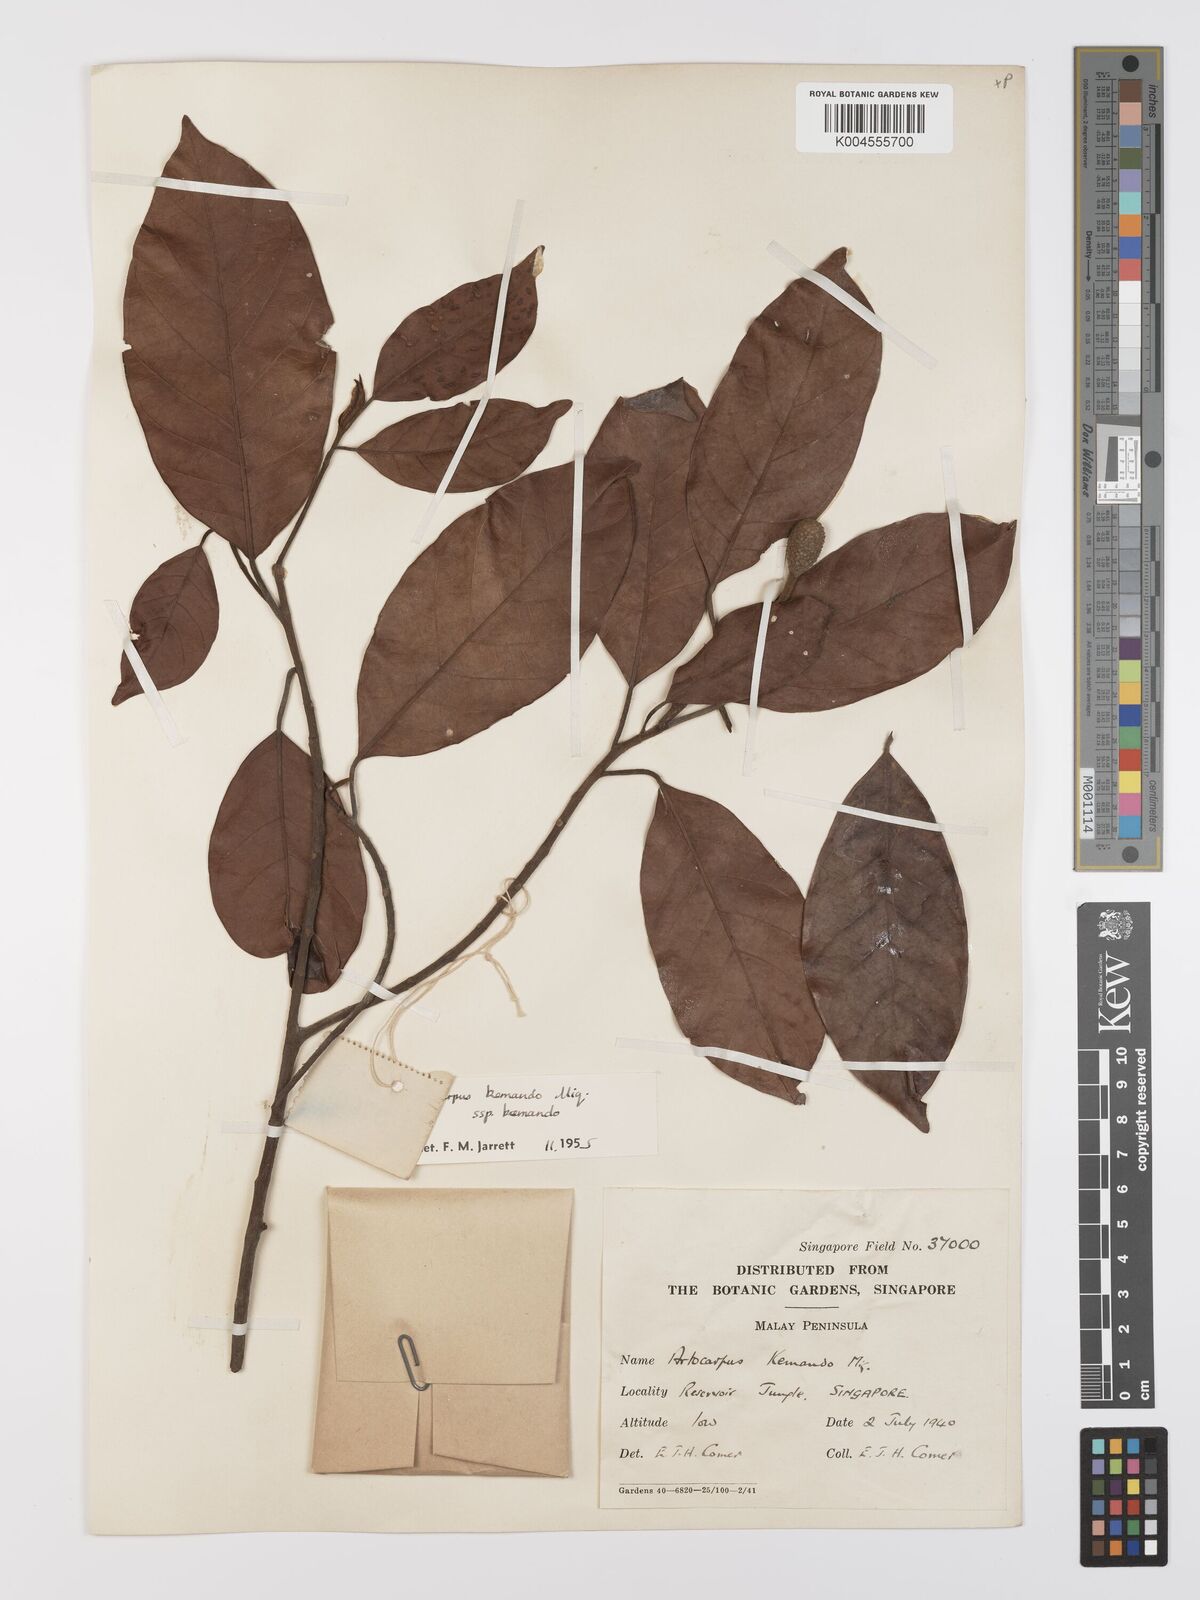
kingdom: Plantae
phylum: Tracheophyta
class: Magnoliopsida
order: Rosales
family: Moraceae
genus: Artocarpus
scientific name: Artocarpus kemando
